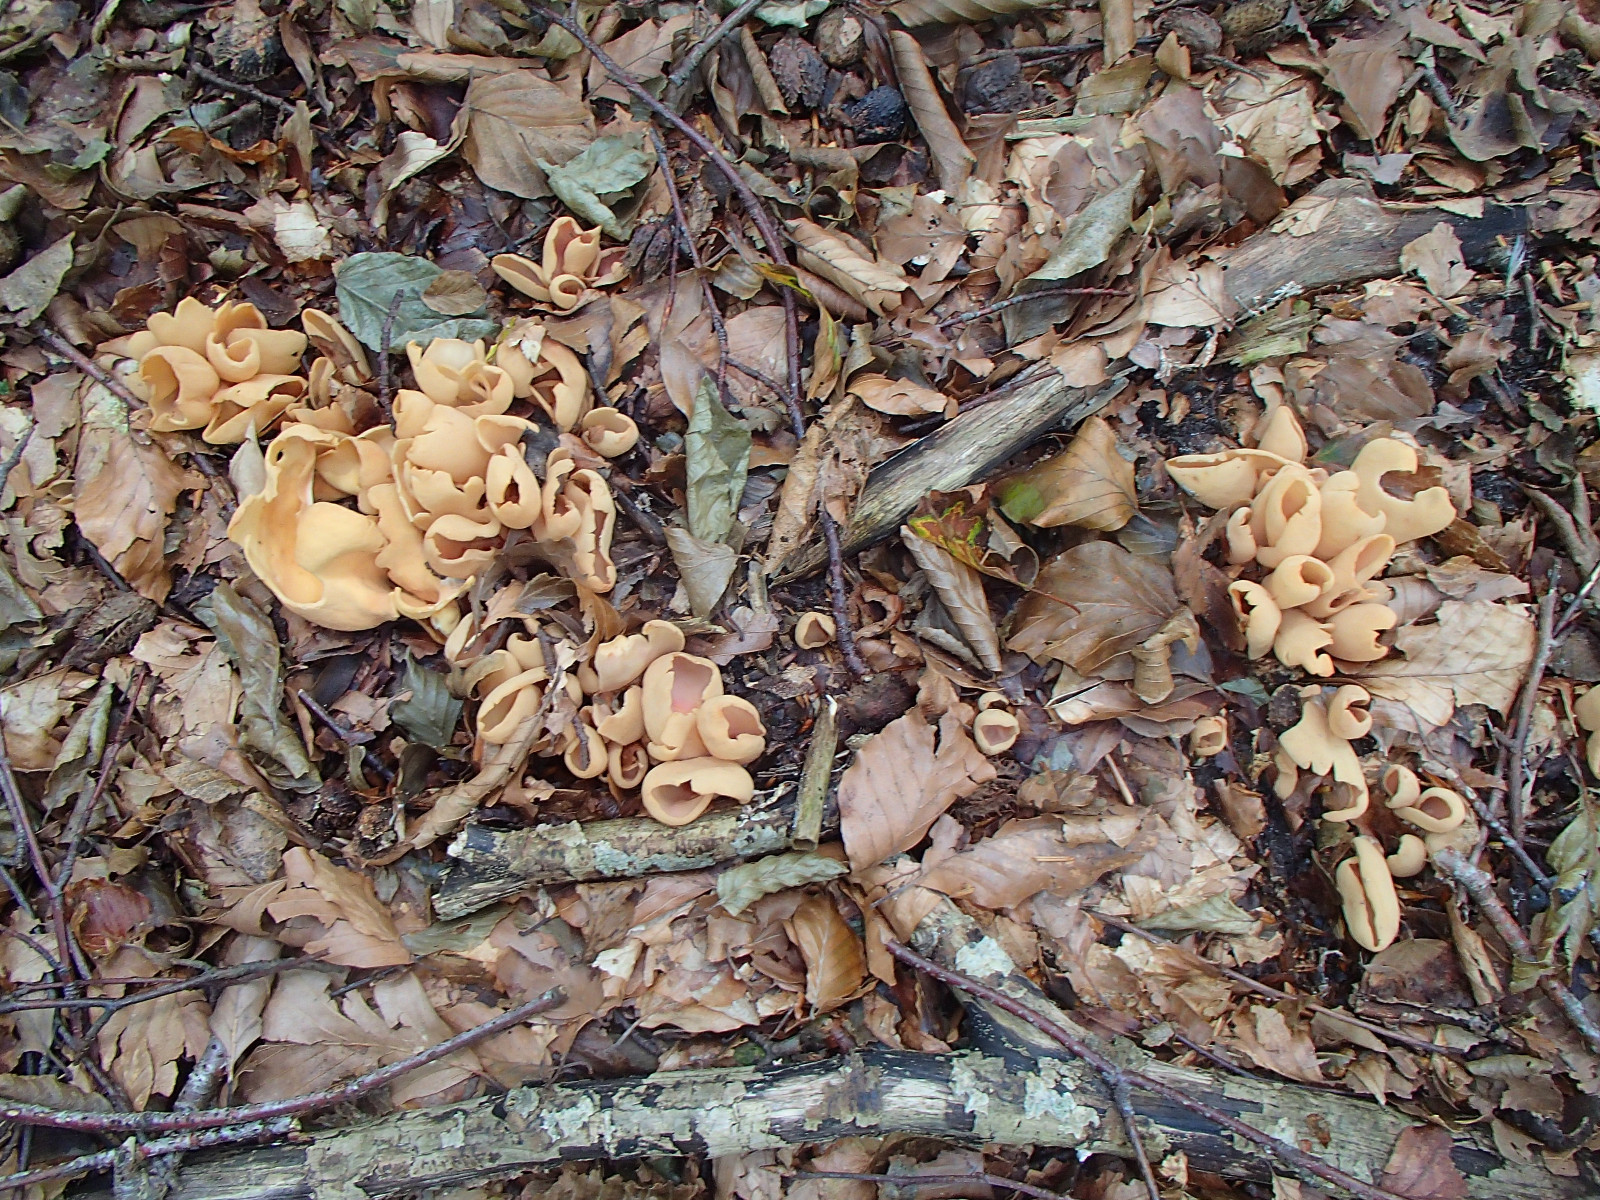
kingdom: Fungi
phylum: Ascomycota
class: Pezizomycetes
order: Pezizales
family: Otideaceae
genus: Otidea
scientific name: Otidea onotica
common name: æsel-ørebæger
